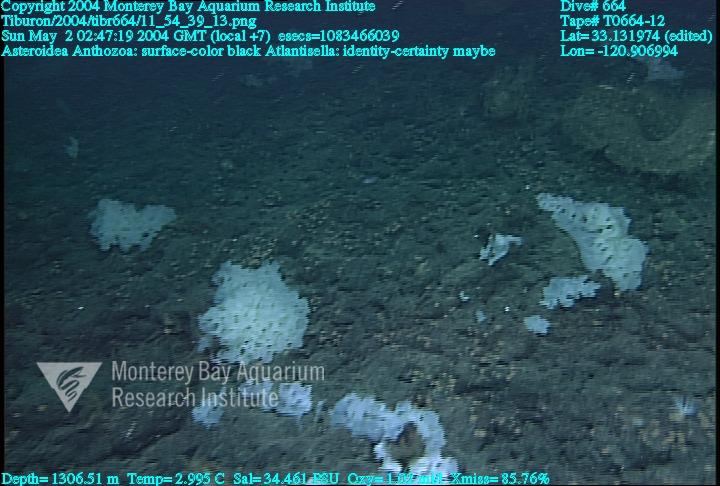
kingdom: Animalia
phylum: Porifera
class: Hexactinellida
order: Lyssacinosida
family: Euplectellidae
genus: Atlantisella
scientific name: Atlantisella
